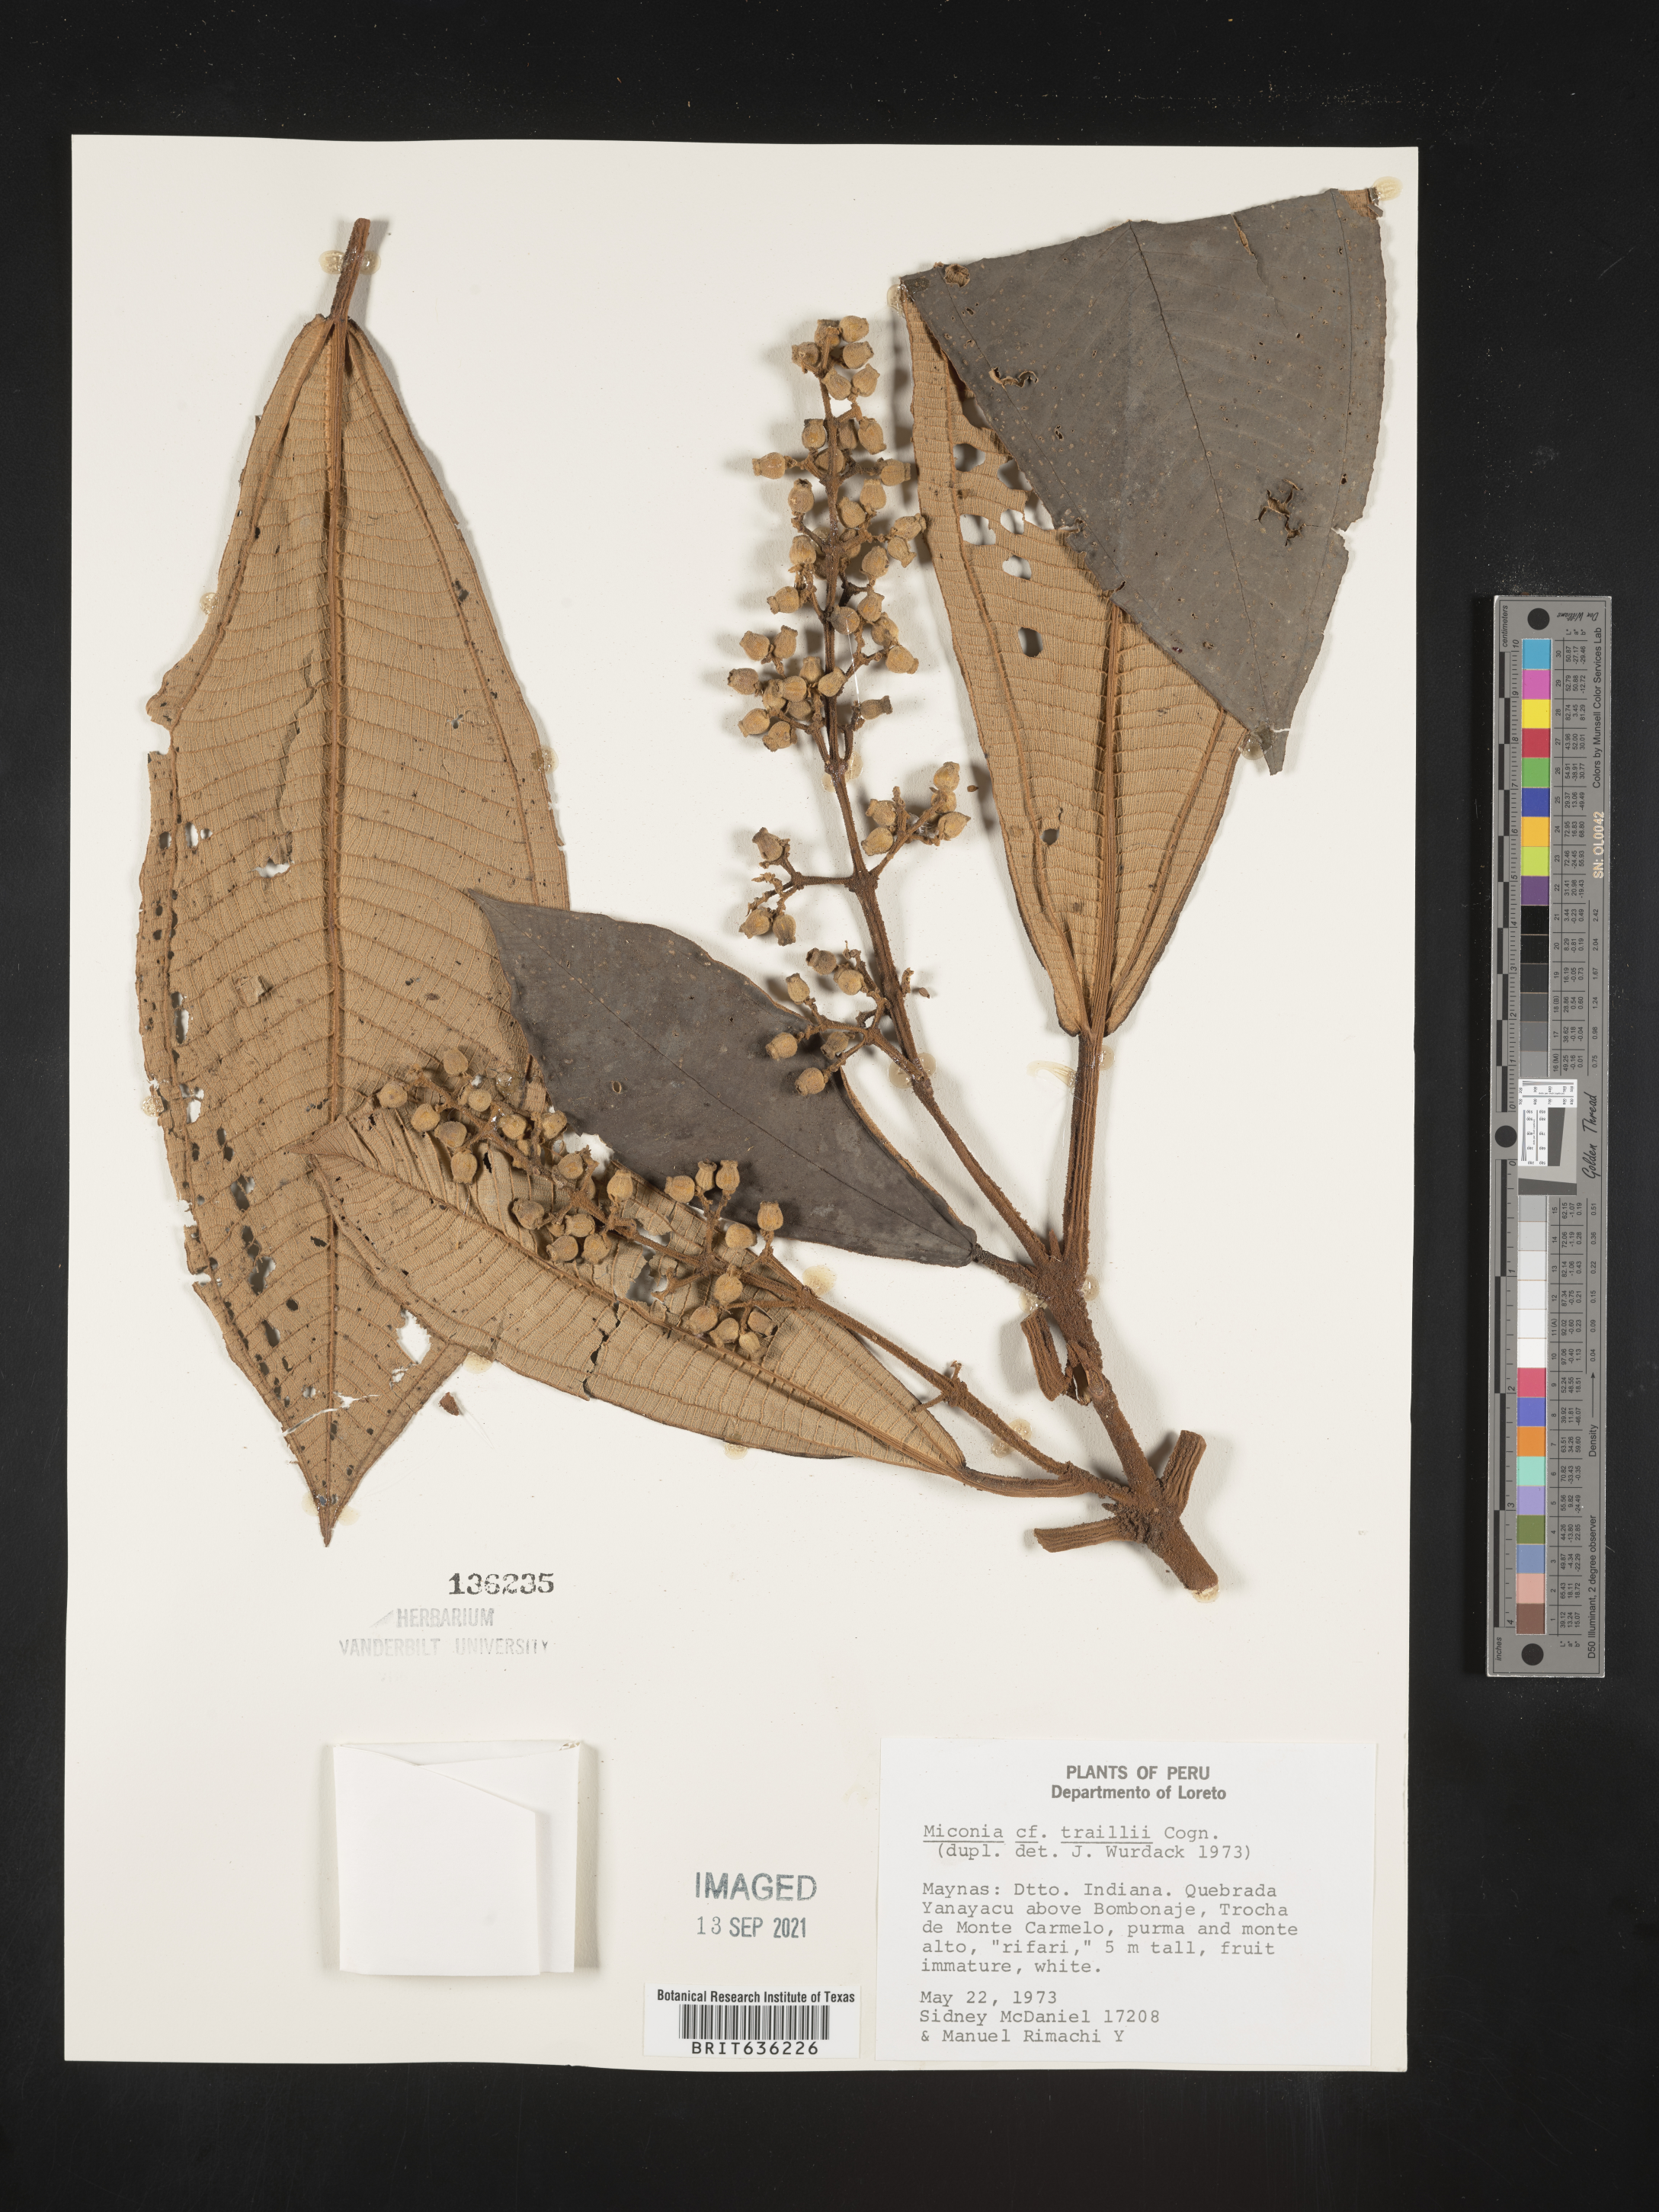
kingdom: Plantae
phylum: Tracheophyta
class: Magnoliopsida
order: Myrtales
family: Melastomataceae
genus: Miconia
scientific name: Miconia
